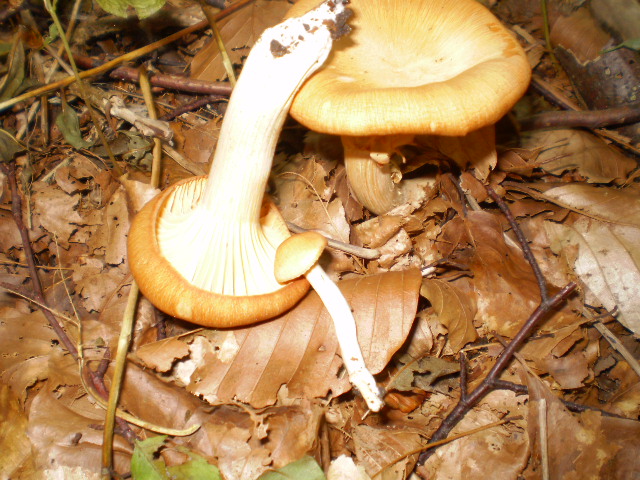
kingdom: Fungi
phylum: Basidiomycota
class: Agaricomycetes
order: Agaricales
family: Hygrophoraceae
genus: Cuphophyllus
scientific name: Cuphophyllus pratensis
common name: eng-vokshat
